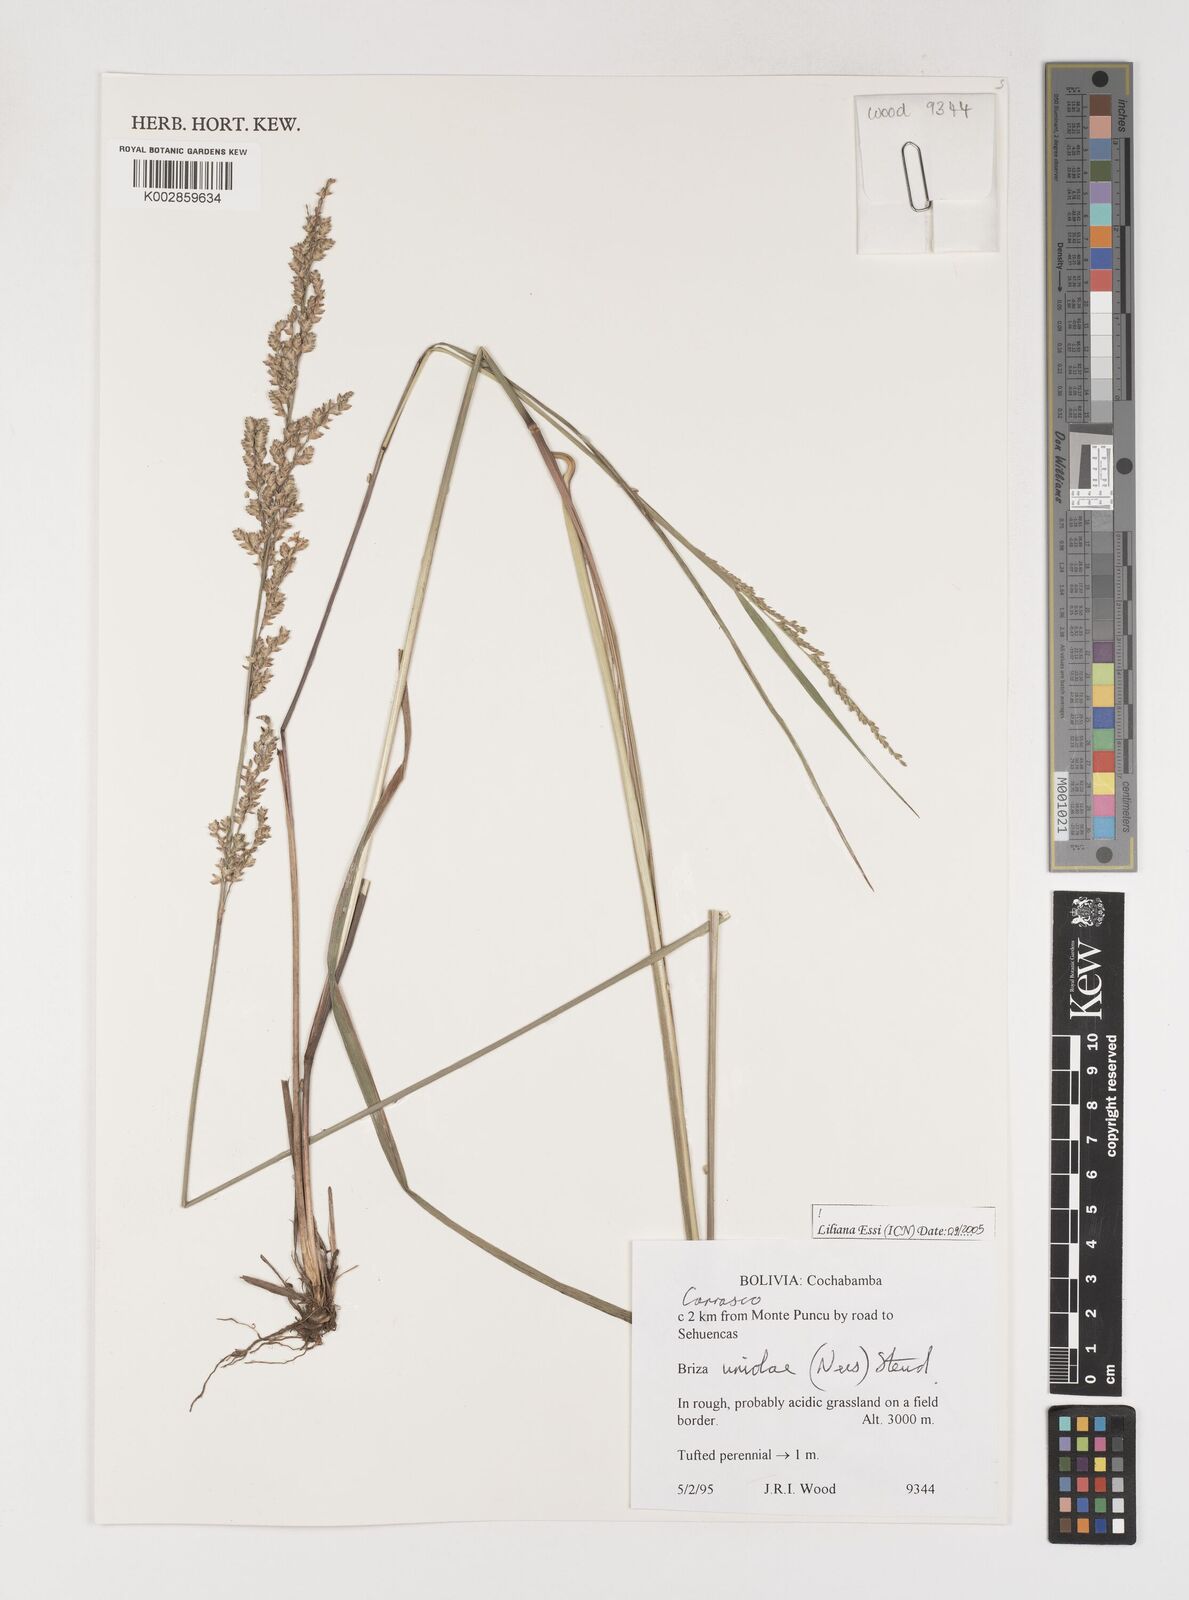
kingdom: Plantae
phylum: Tracheophyta
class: Liliopsida
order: Poales
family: Poaceae
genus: Poidium
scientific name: Poidium uniolae
